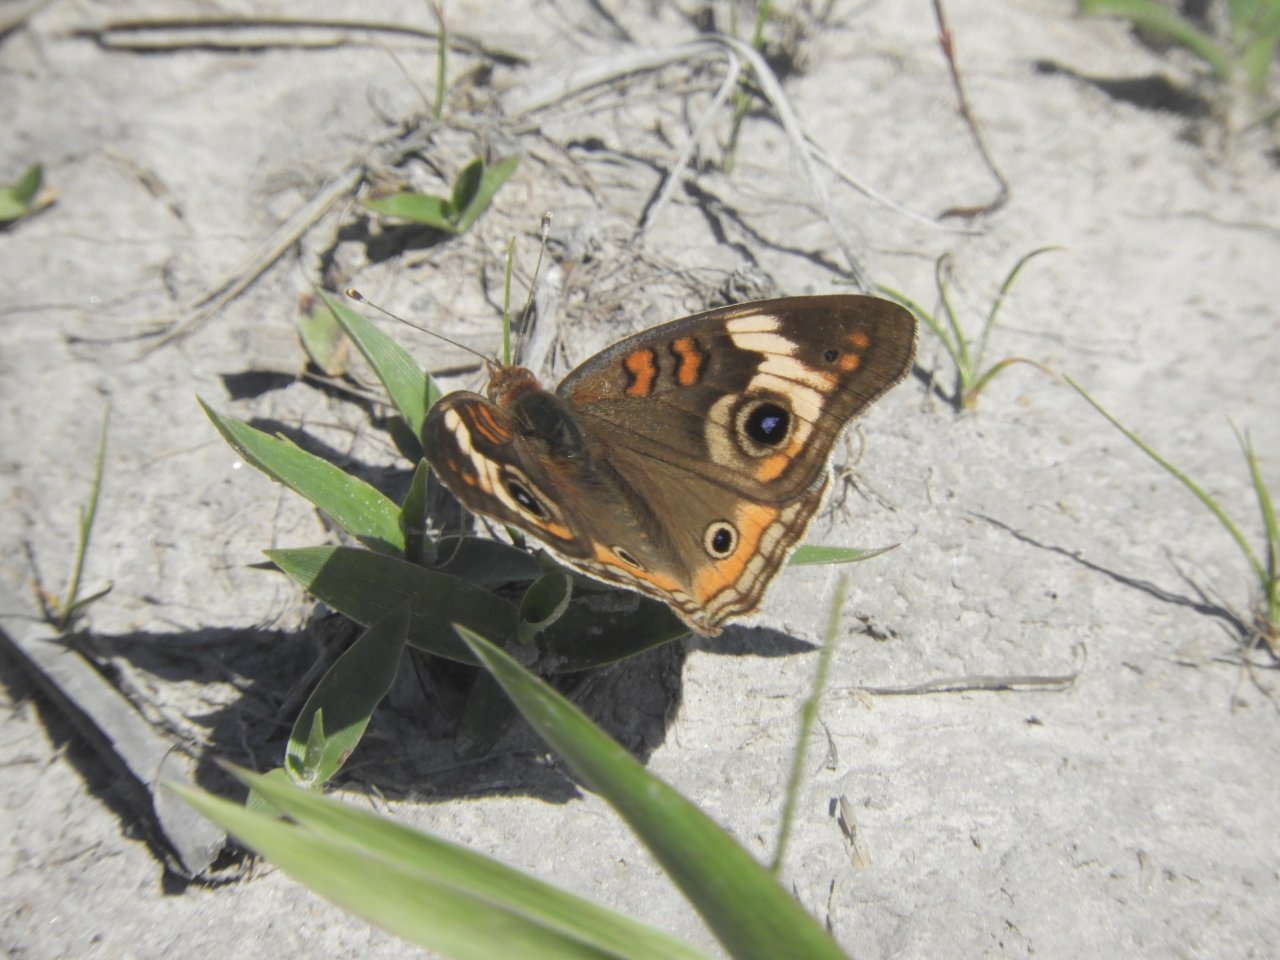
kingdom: Animalia
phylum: Arthropoda
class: Insecta
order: Lepidoptera
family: Nymphalidae
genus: Junonia
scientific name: Junonia coenia
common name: Common Buckeye
